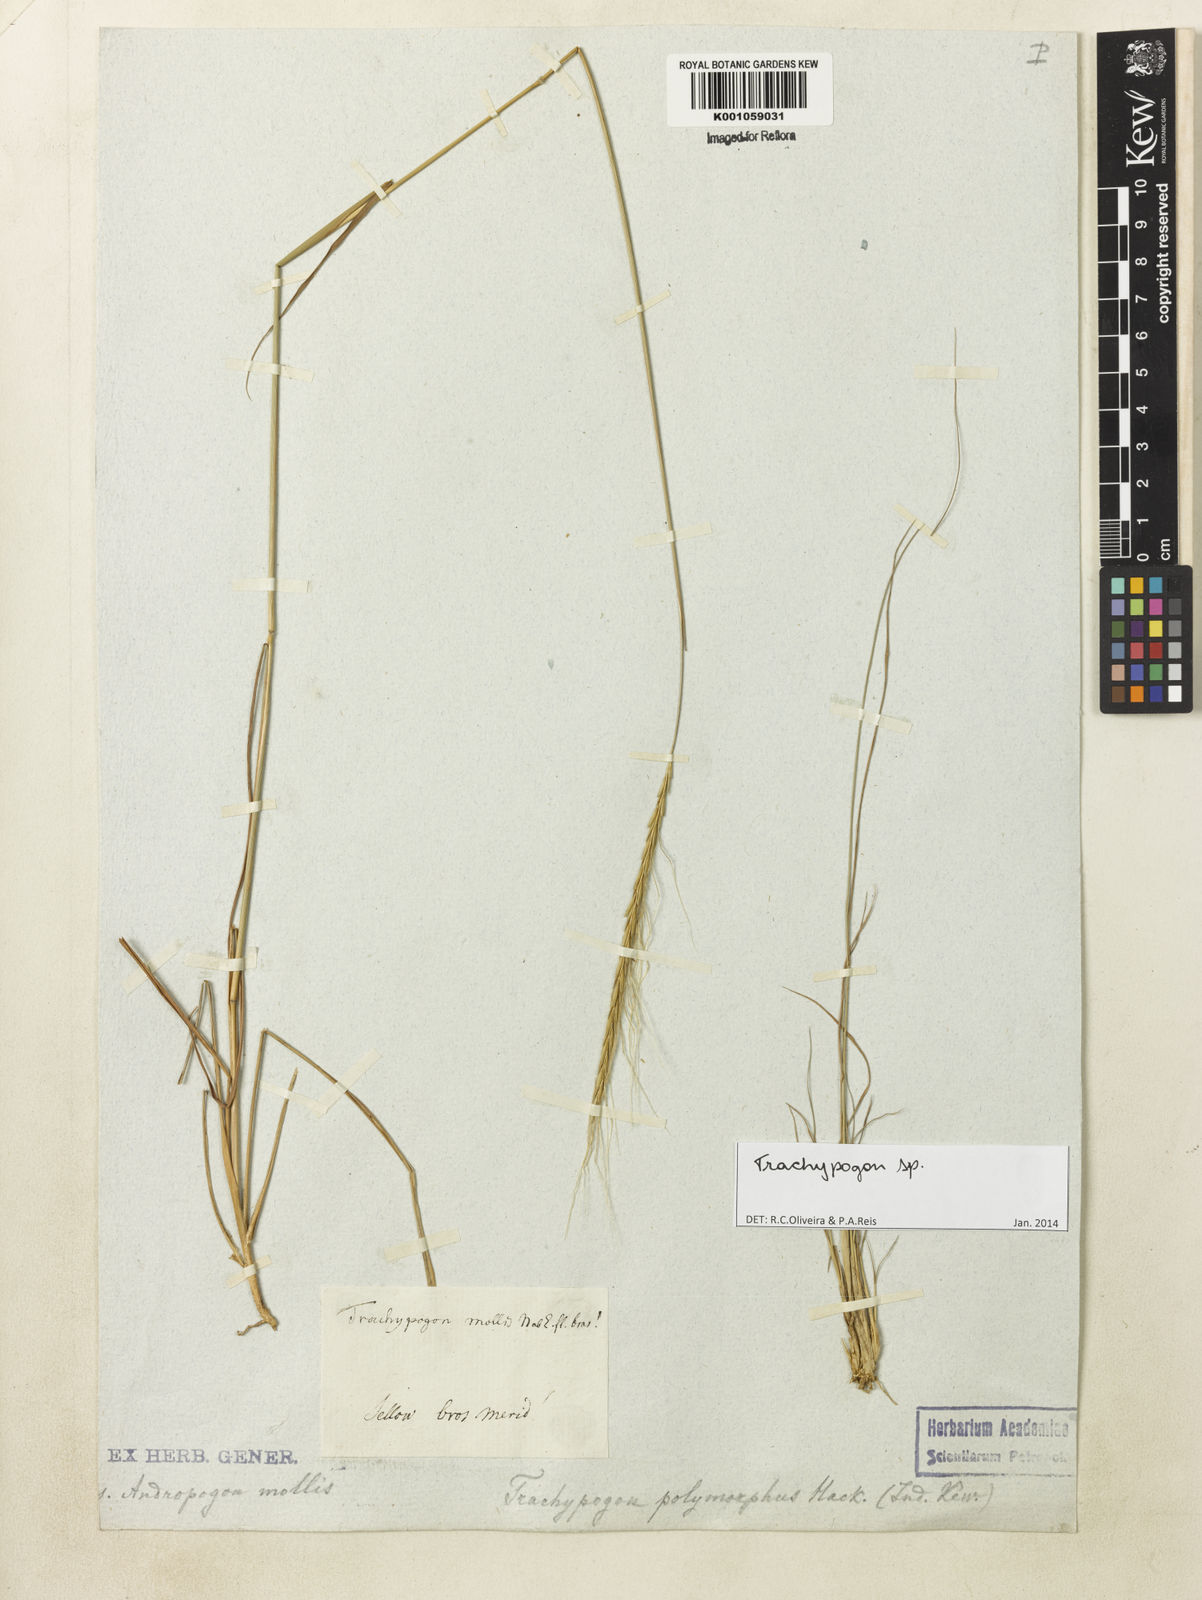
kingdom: Plantae
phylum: Tracheophyta
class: Liliopsida
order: Poales
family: Poaceae
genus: Trachypogon
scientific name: Trachypogon
